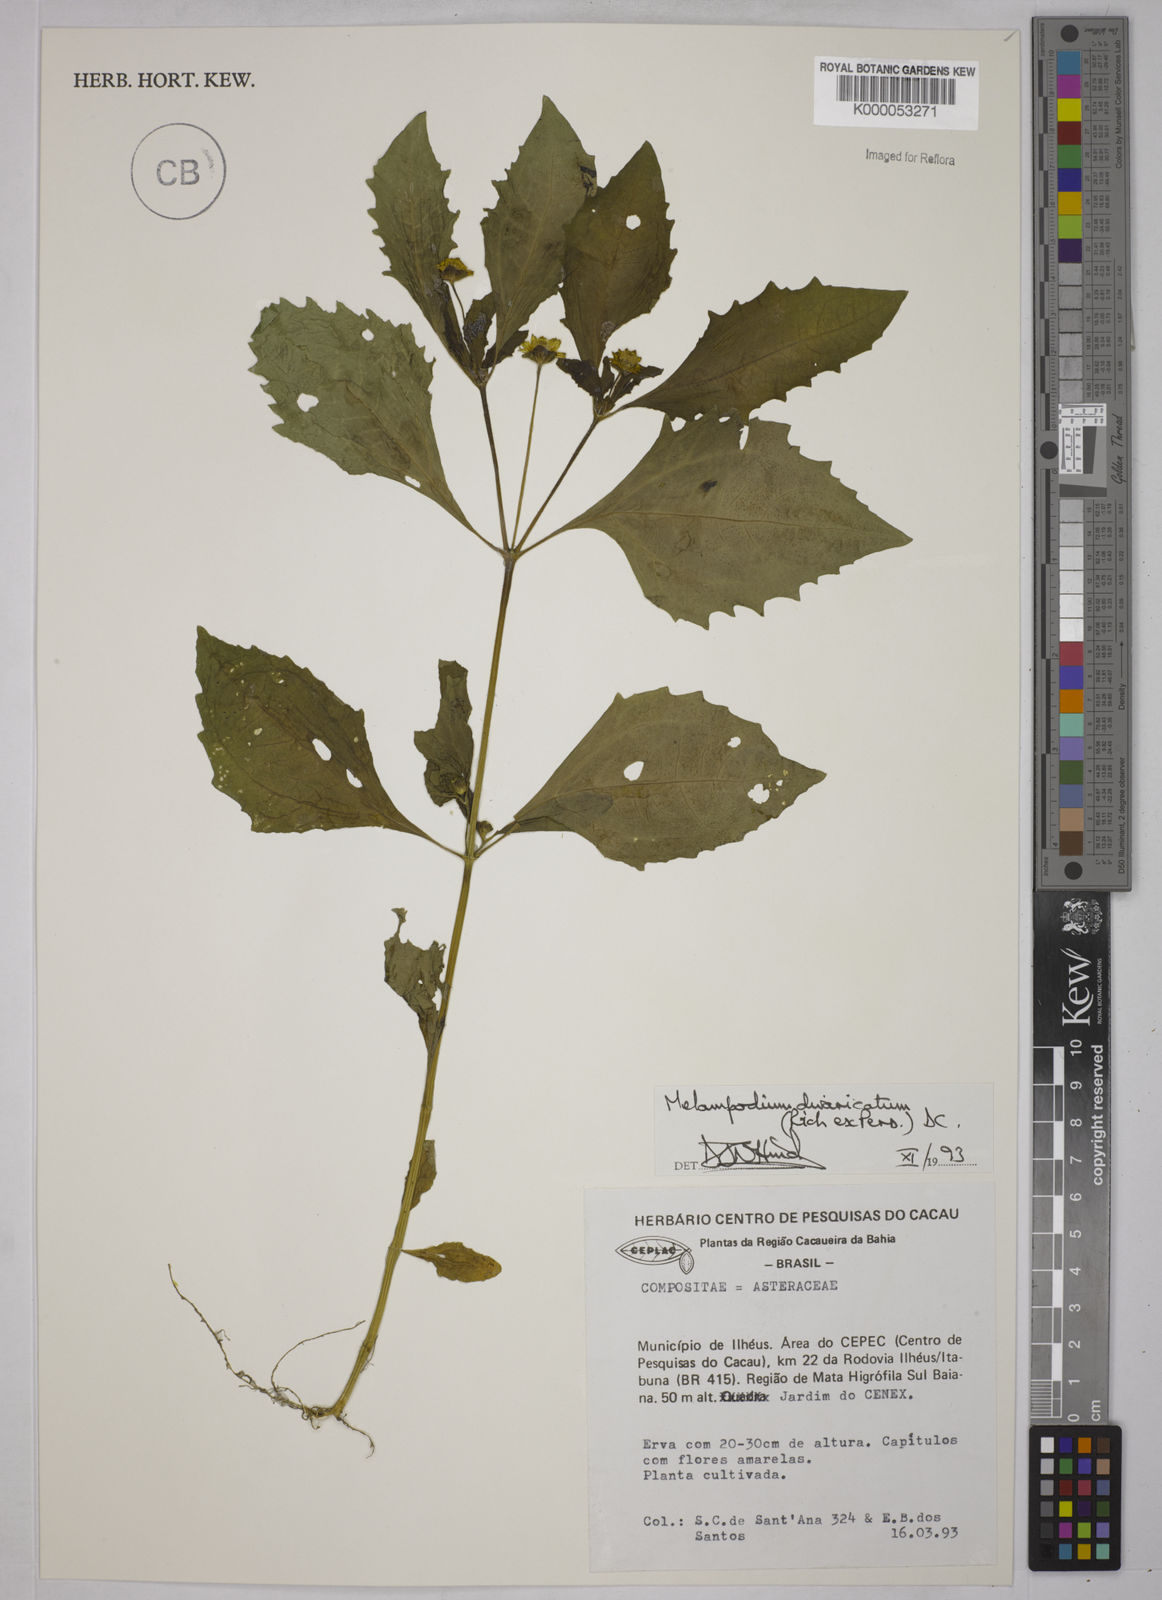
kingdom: Plantae
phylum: Tracheophyta
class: Magnoliopsida
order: Asterales
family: Asteraceae
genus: Melampodium
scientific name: Melampodium divaricatum
